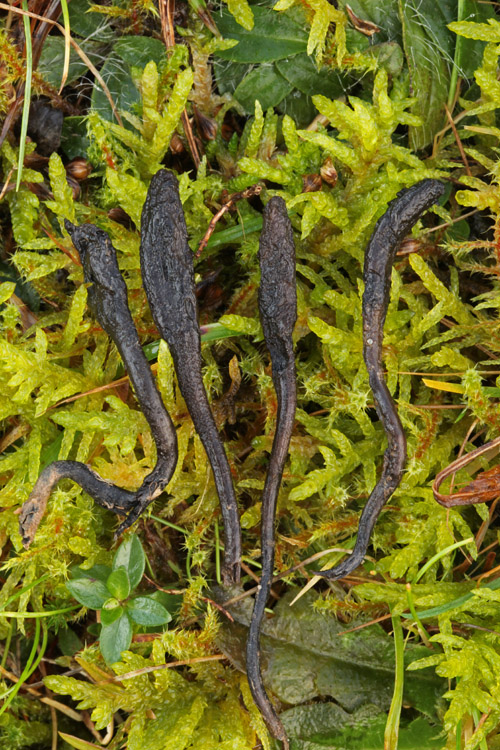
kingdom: Fungi
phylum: Ascomycota
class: Geoglossomycetes
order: Geoglossales
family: Geoglossaceae
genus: Geoglossum
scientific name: Geoglossum fallax
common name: småskællet jordtunge
